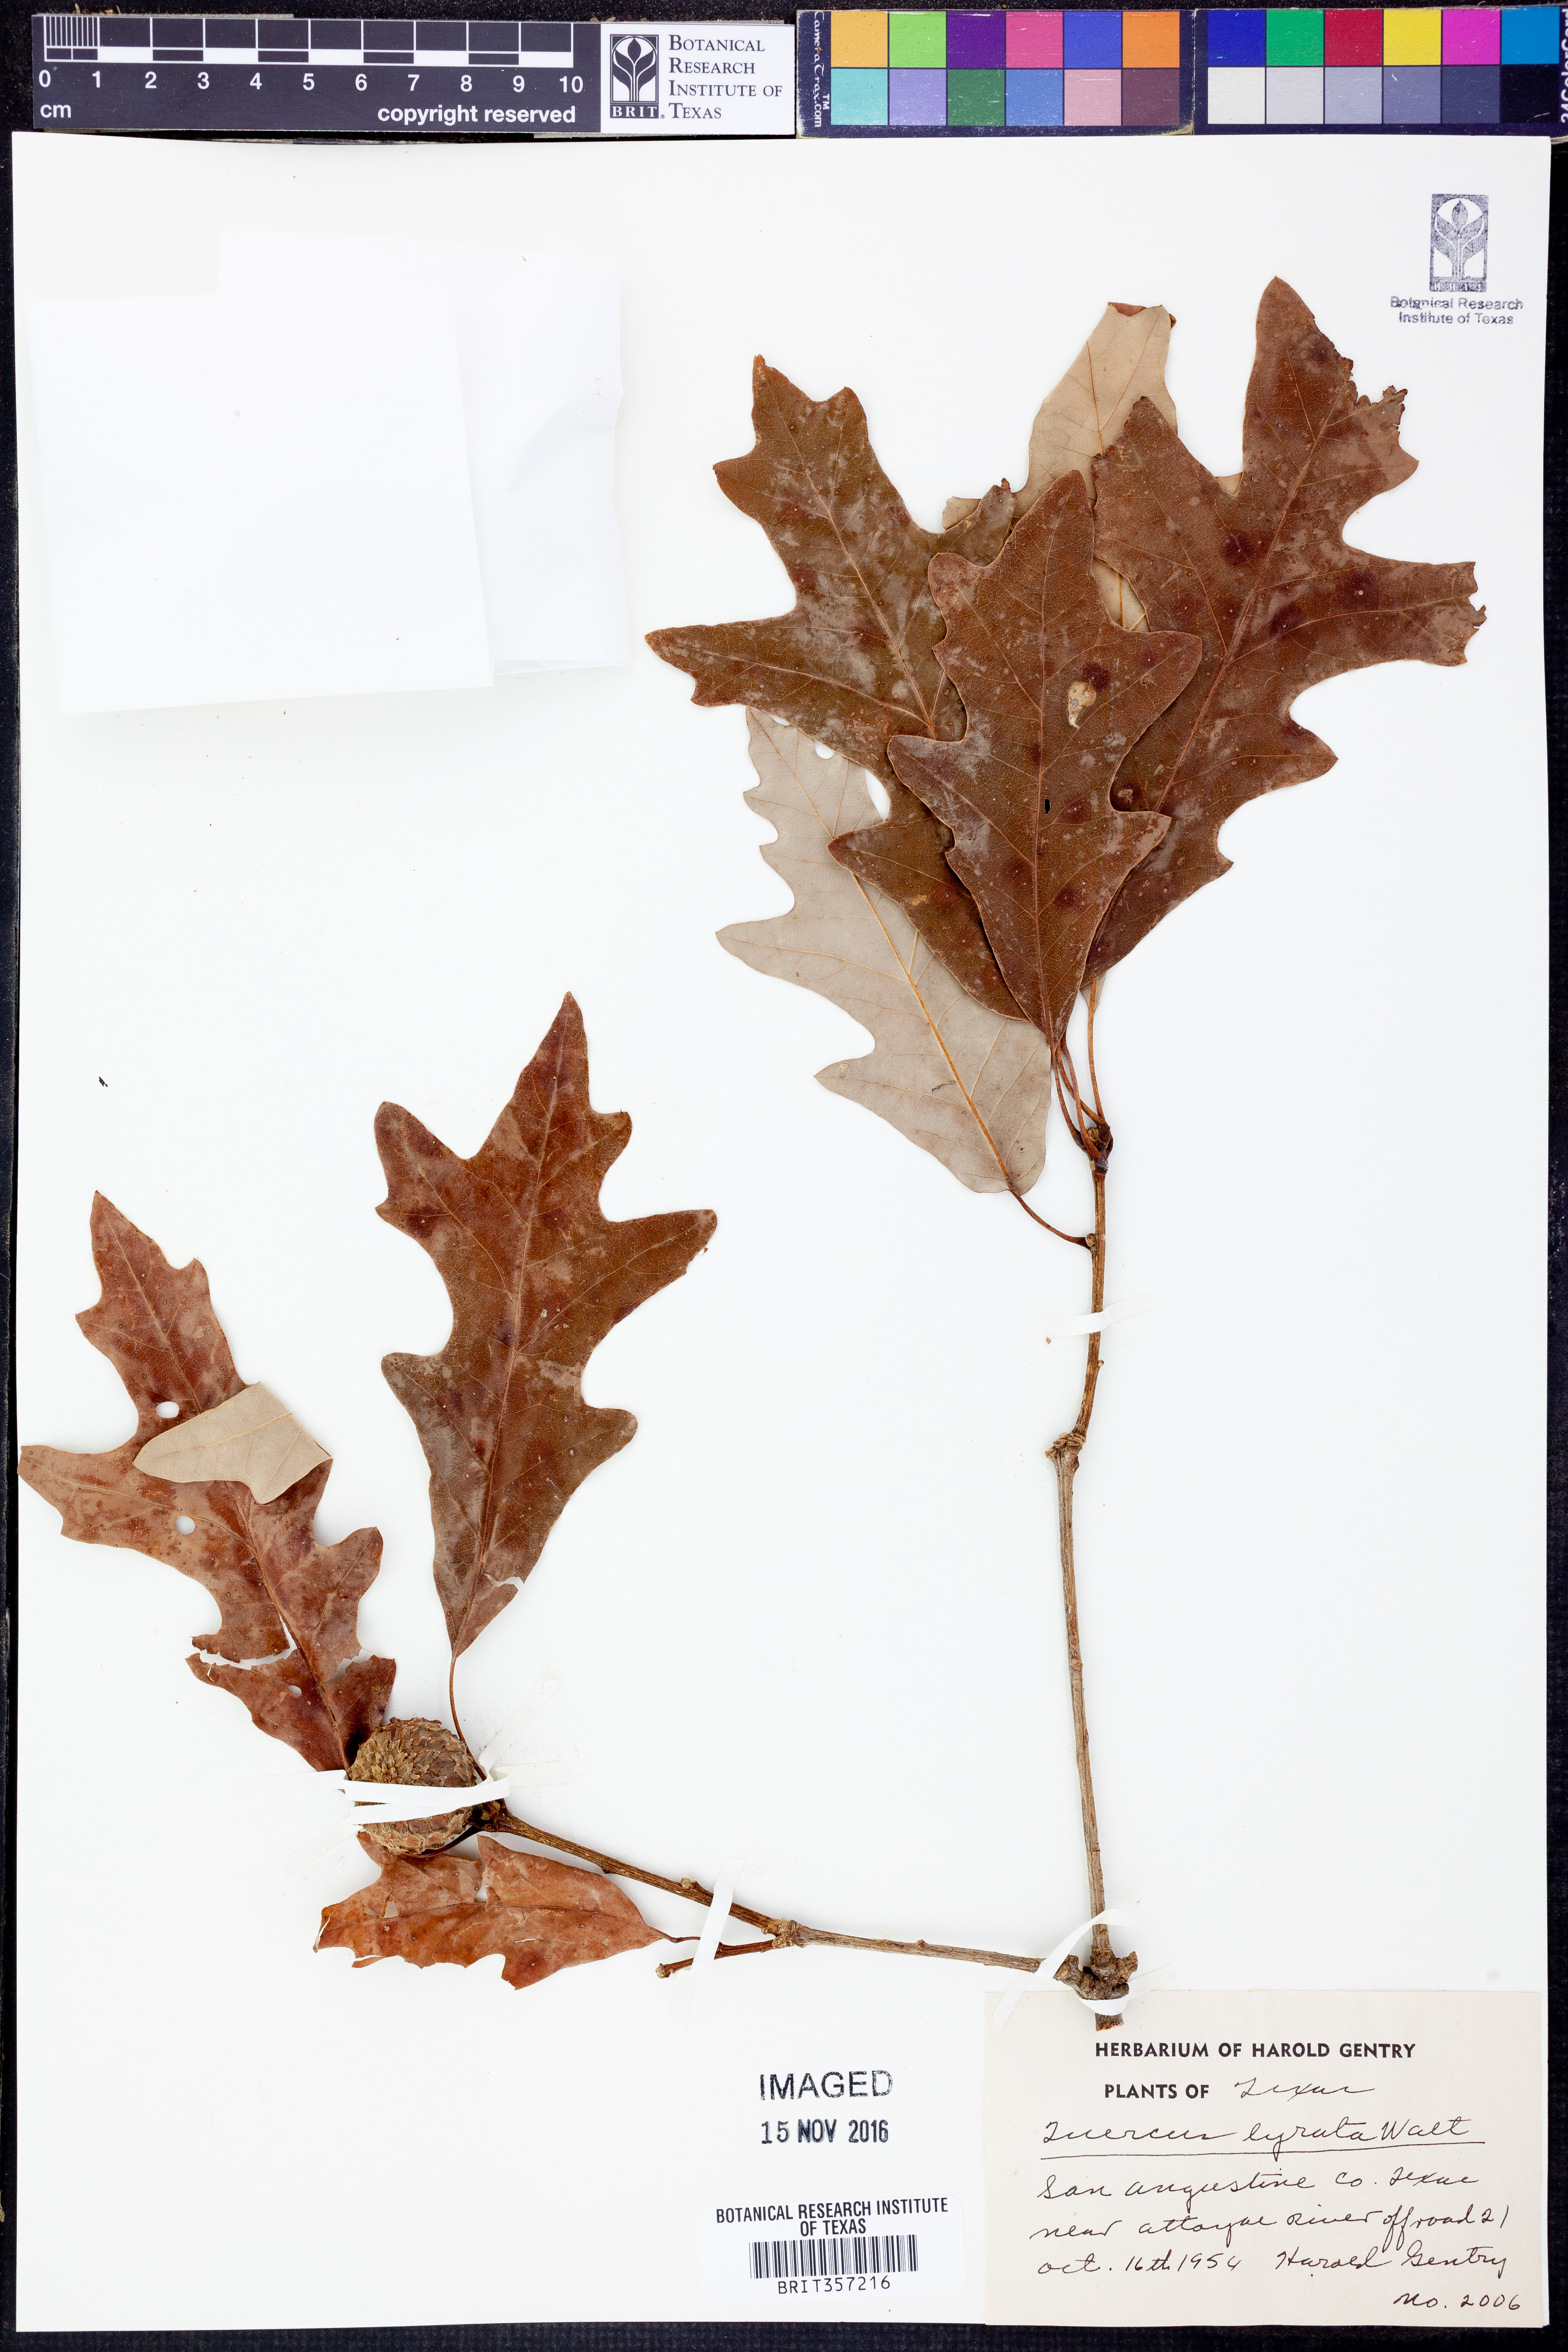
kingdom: Plantae
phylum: Tracheophyta
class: Magnoliopsida
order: Fagales
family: Fagaceae
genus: Quercus
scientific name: Quercus lyrata
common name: Overcup oak
